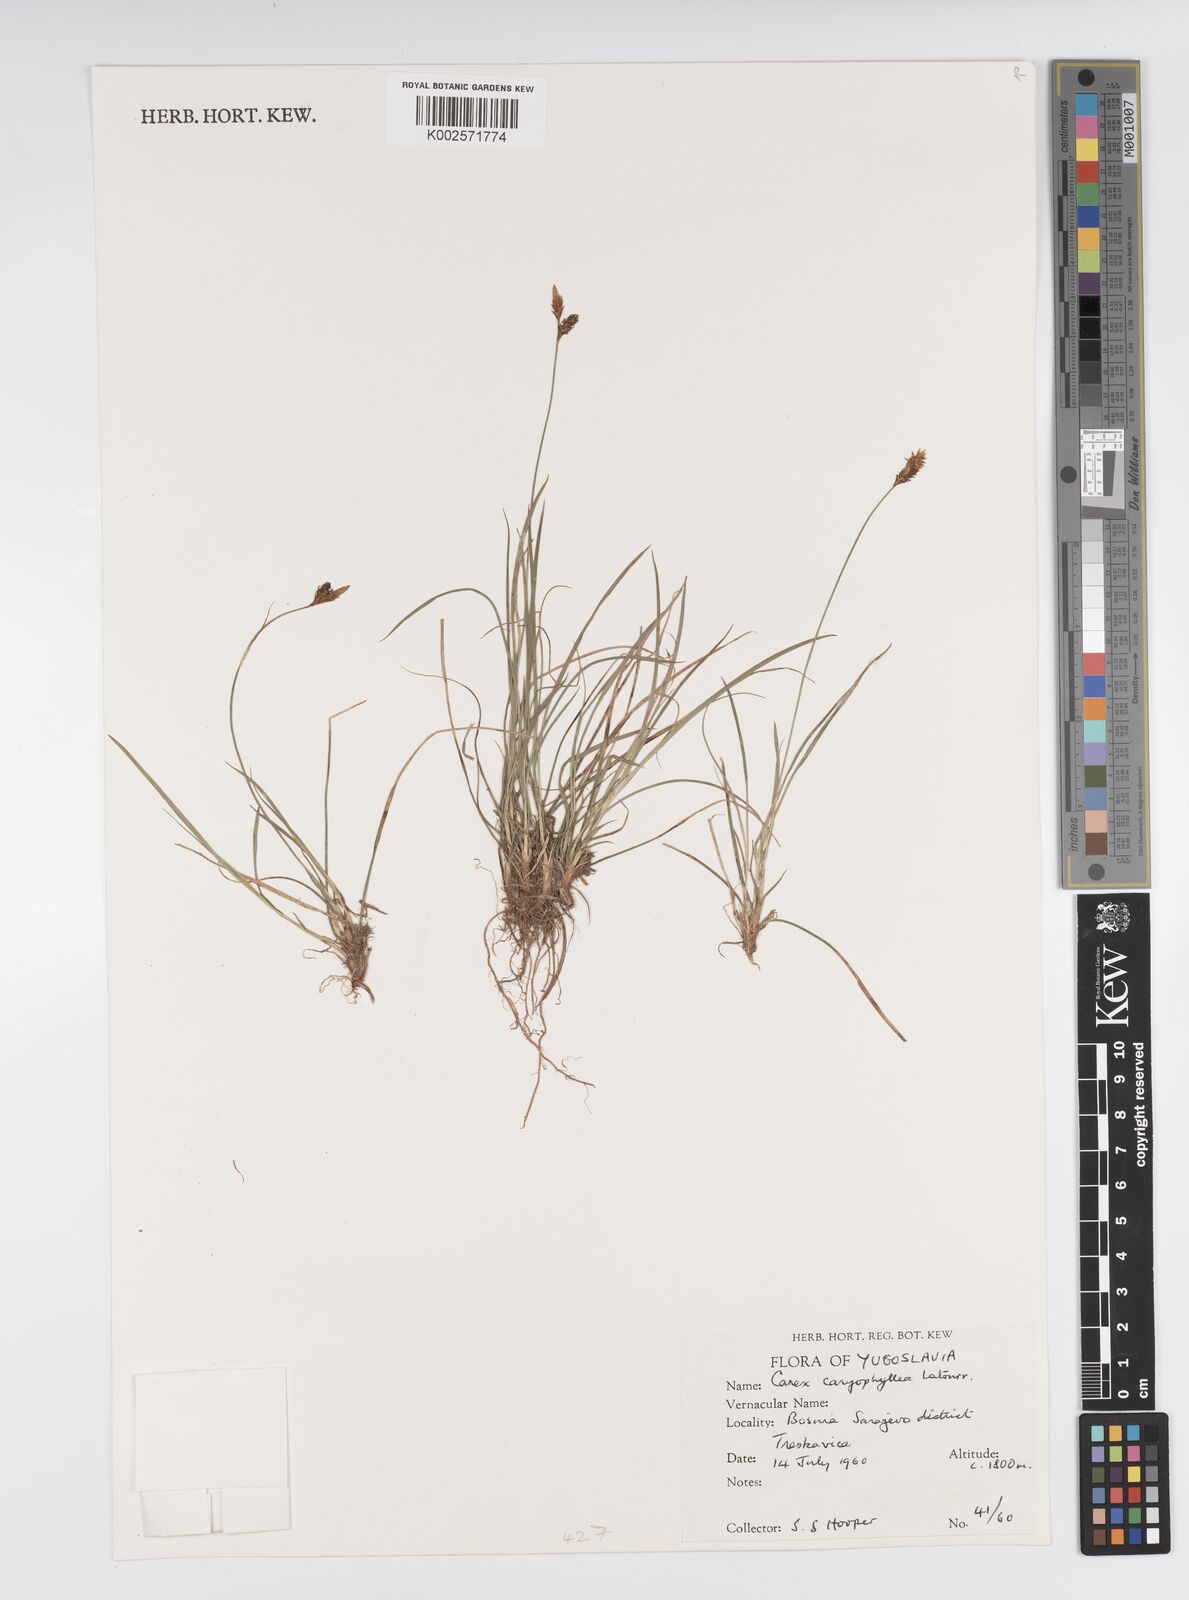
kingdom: Plantae
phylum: Tracheophyta
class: Liliopsida
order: Poales
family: Cyperaceae
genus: Carex
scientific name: Carex caryophyllea
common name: Spring sedge
